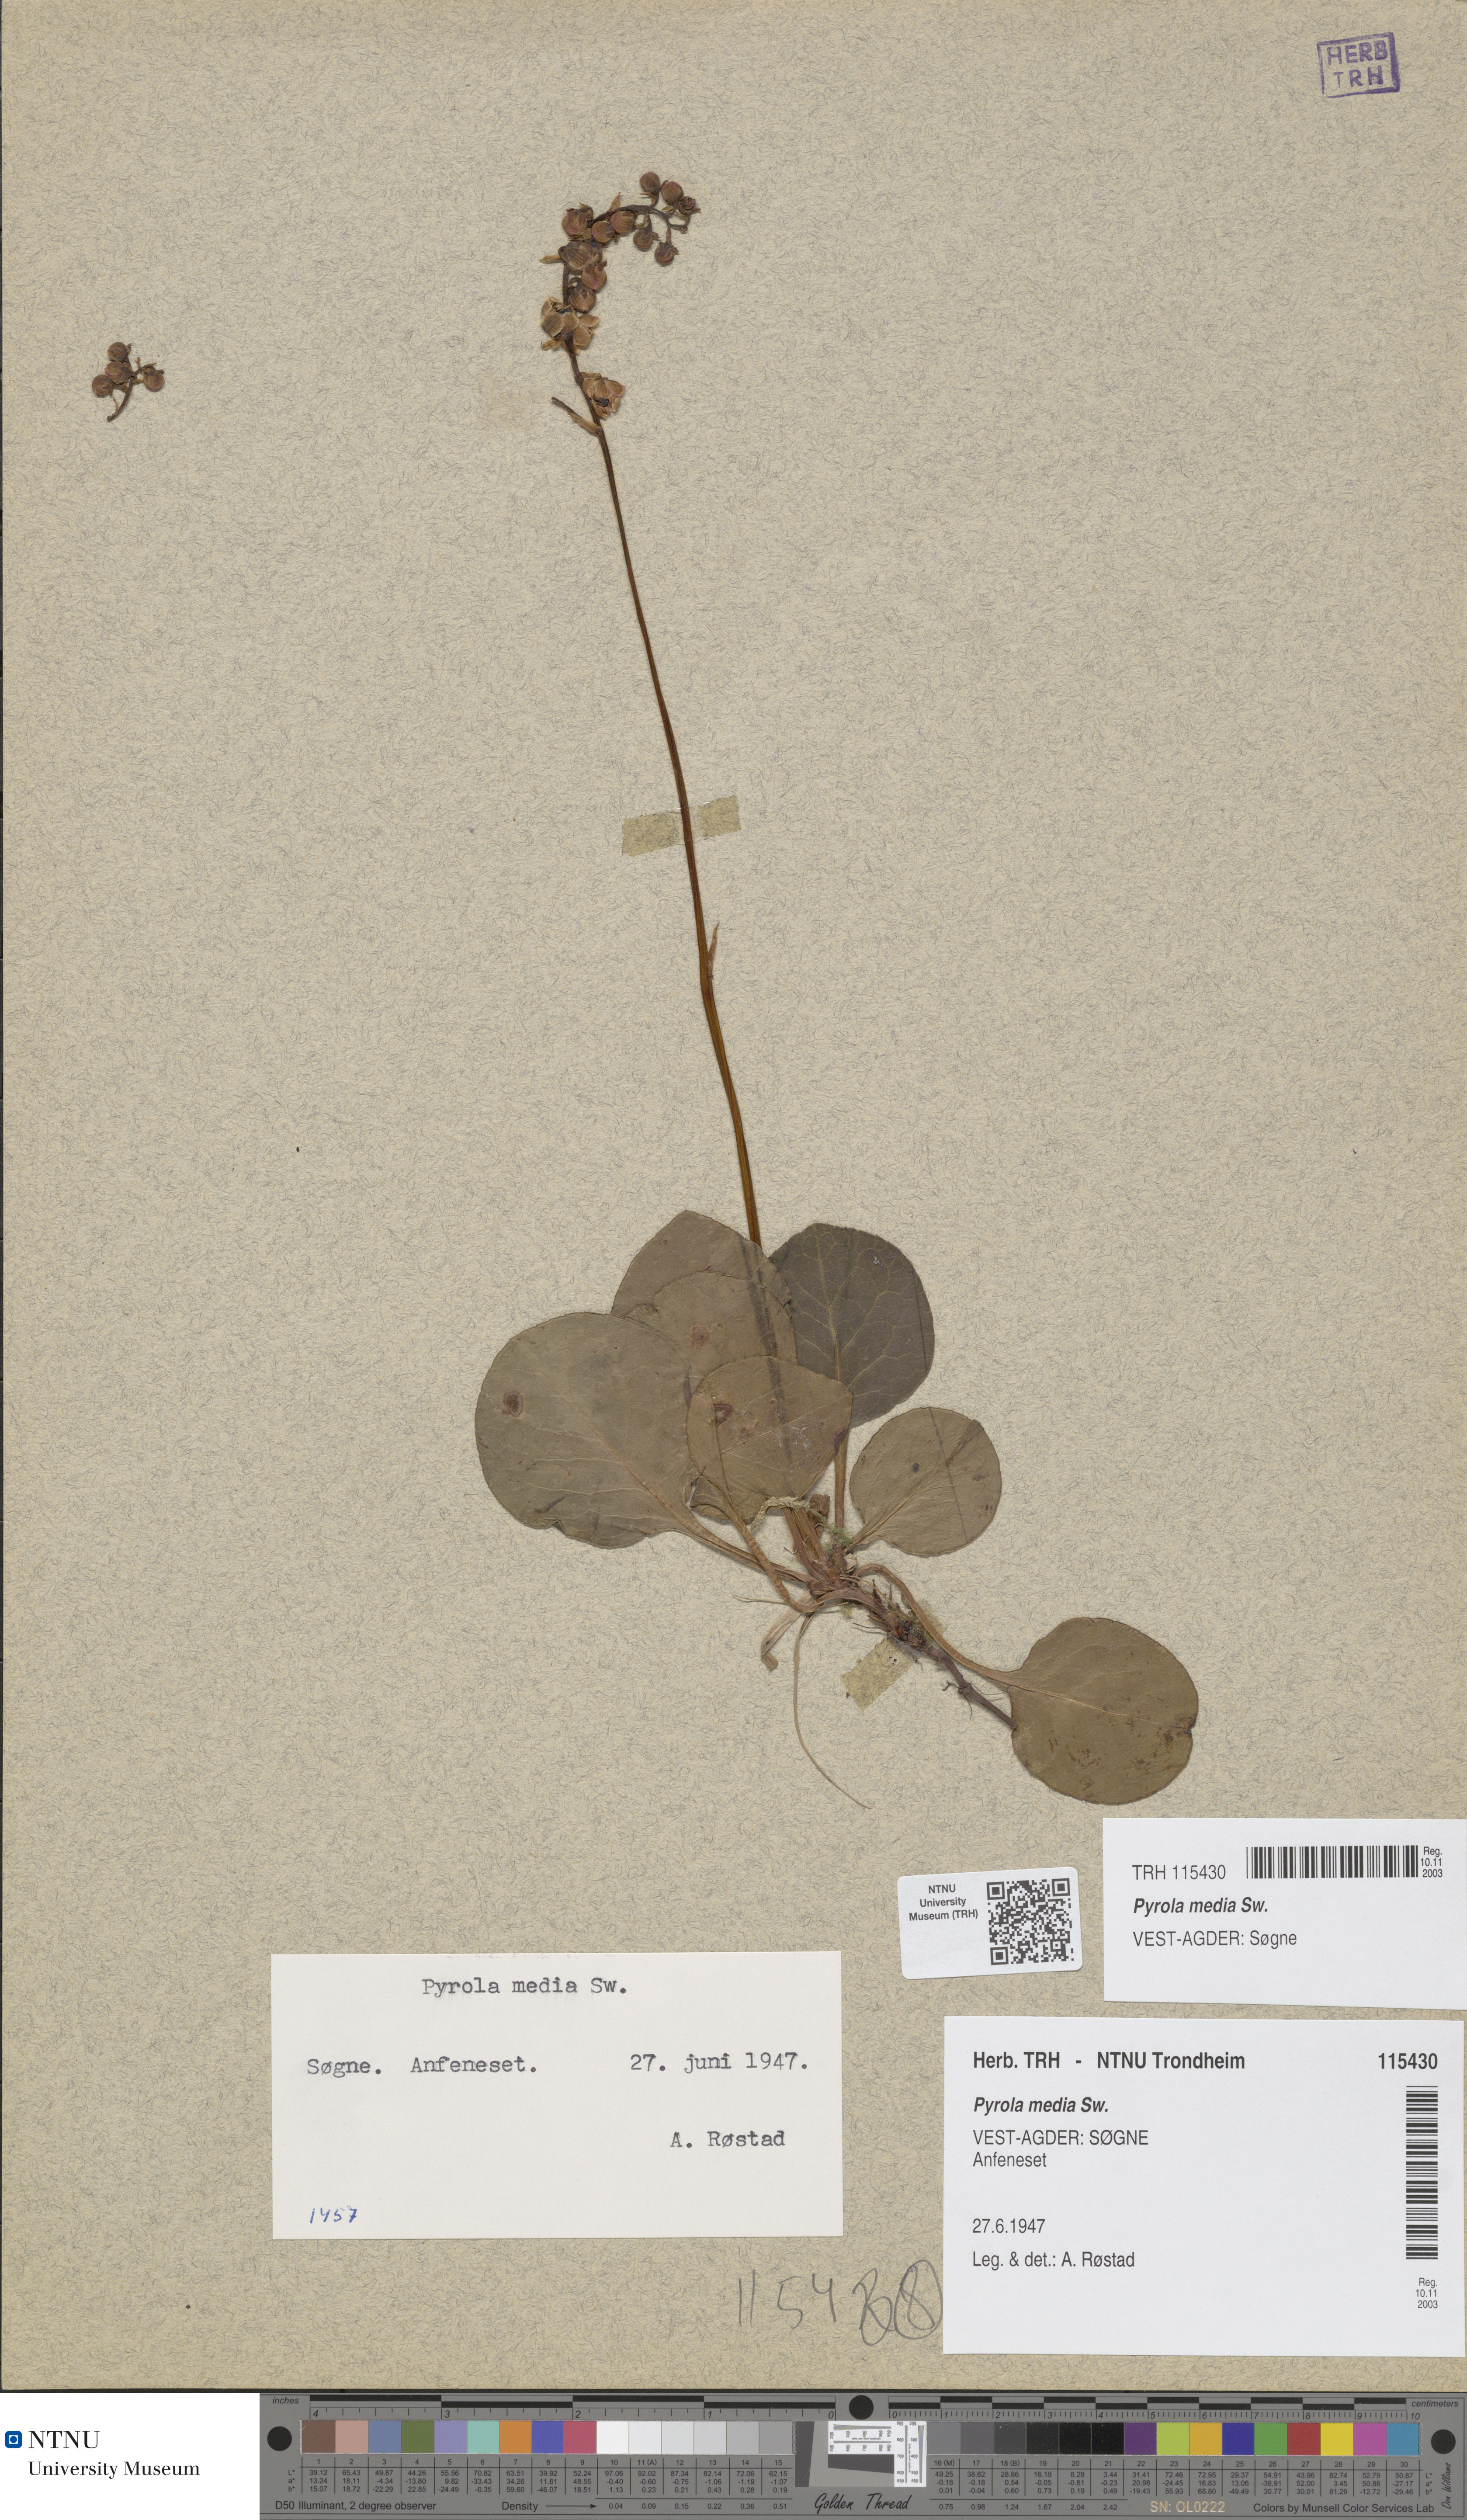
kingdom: Plantae
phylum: Tracheophyta
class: Magnoliopsida
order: Ericales
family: Ericaceae
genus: Pyrola
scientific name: Pyrola media
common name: Intermediate wintergreen
